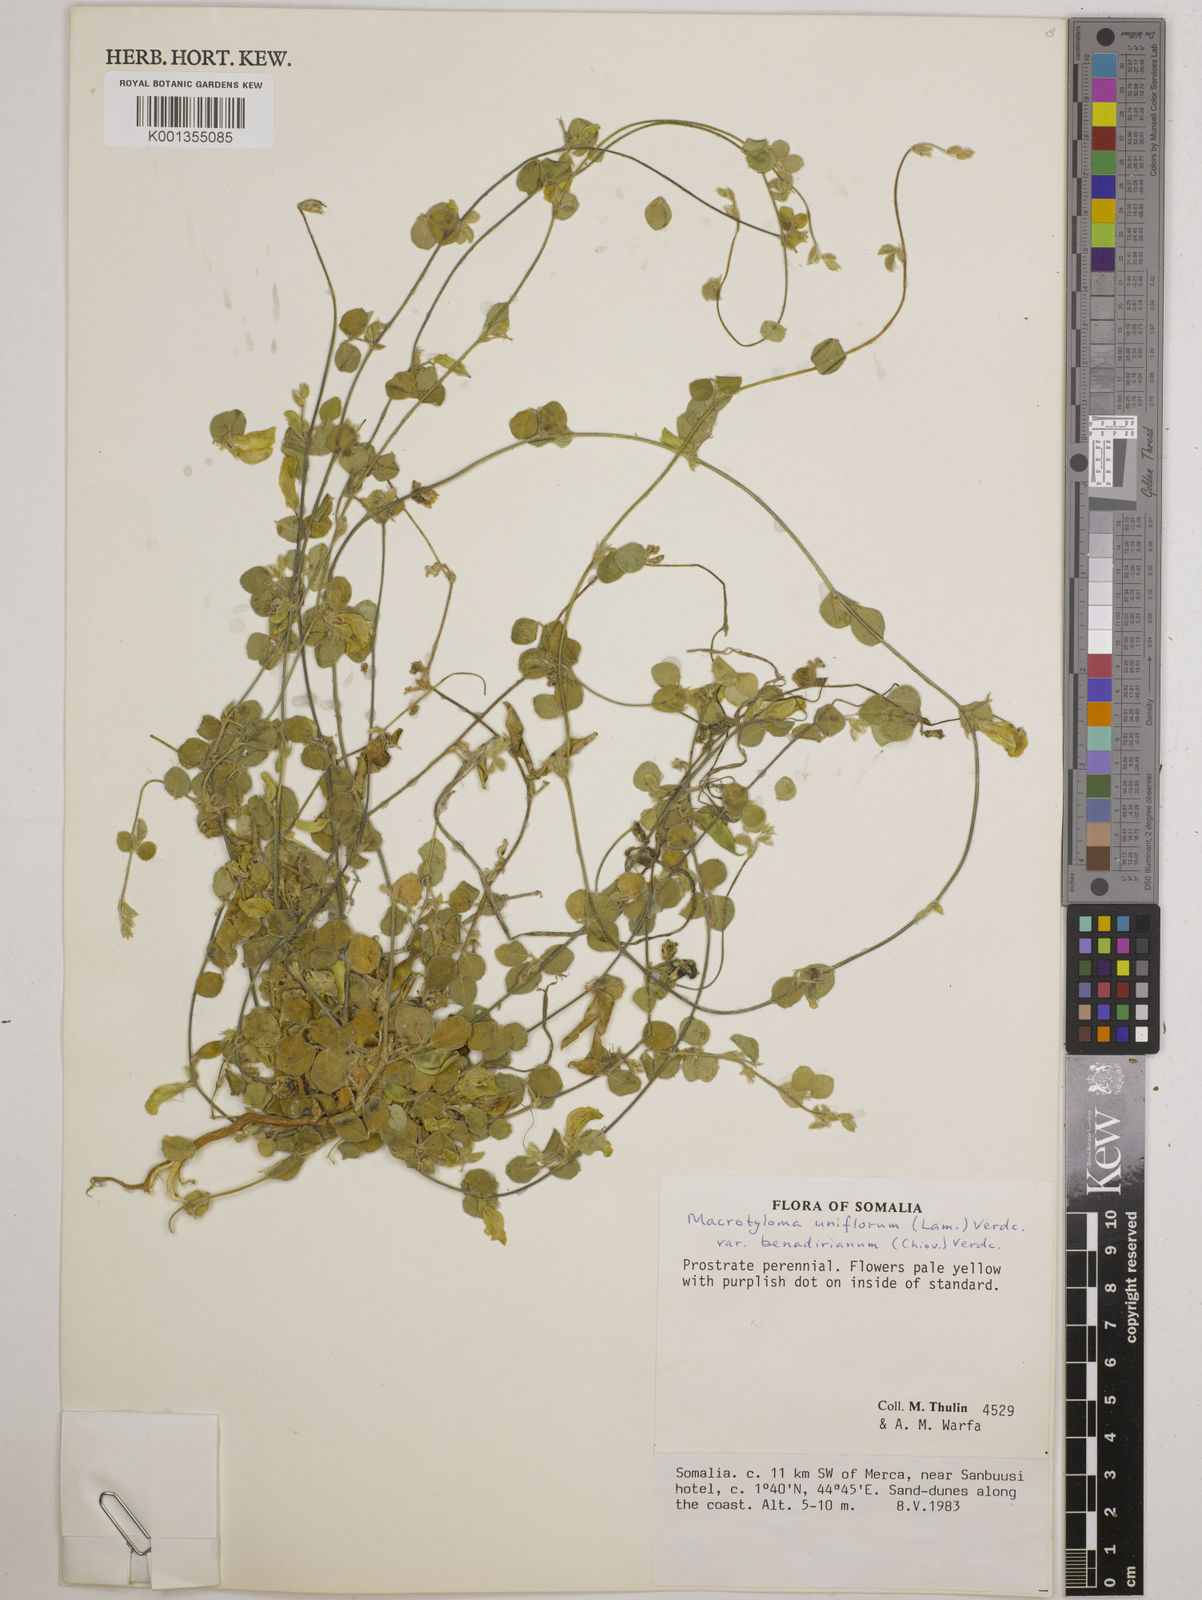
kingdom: Plantae
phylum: Tracheophyta
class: Magnoliopsida
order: Fabales
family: Fabaceae
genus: Macrotyloma
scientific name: Macrotyloma uniflorum
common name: Horse gram
